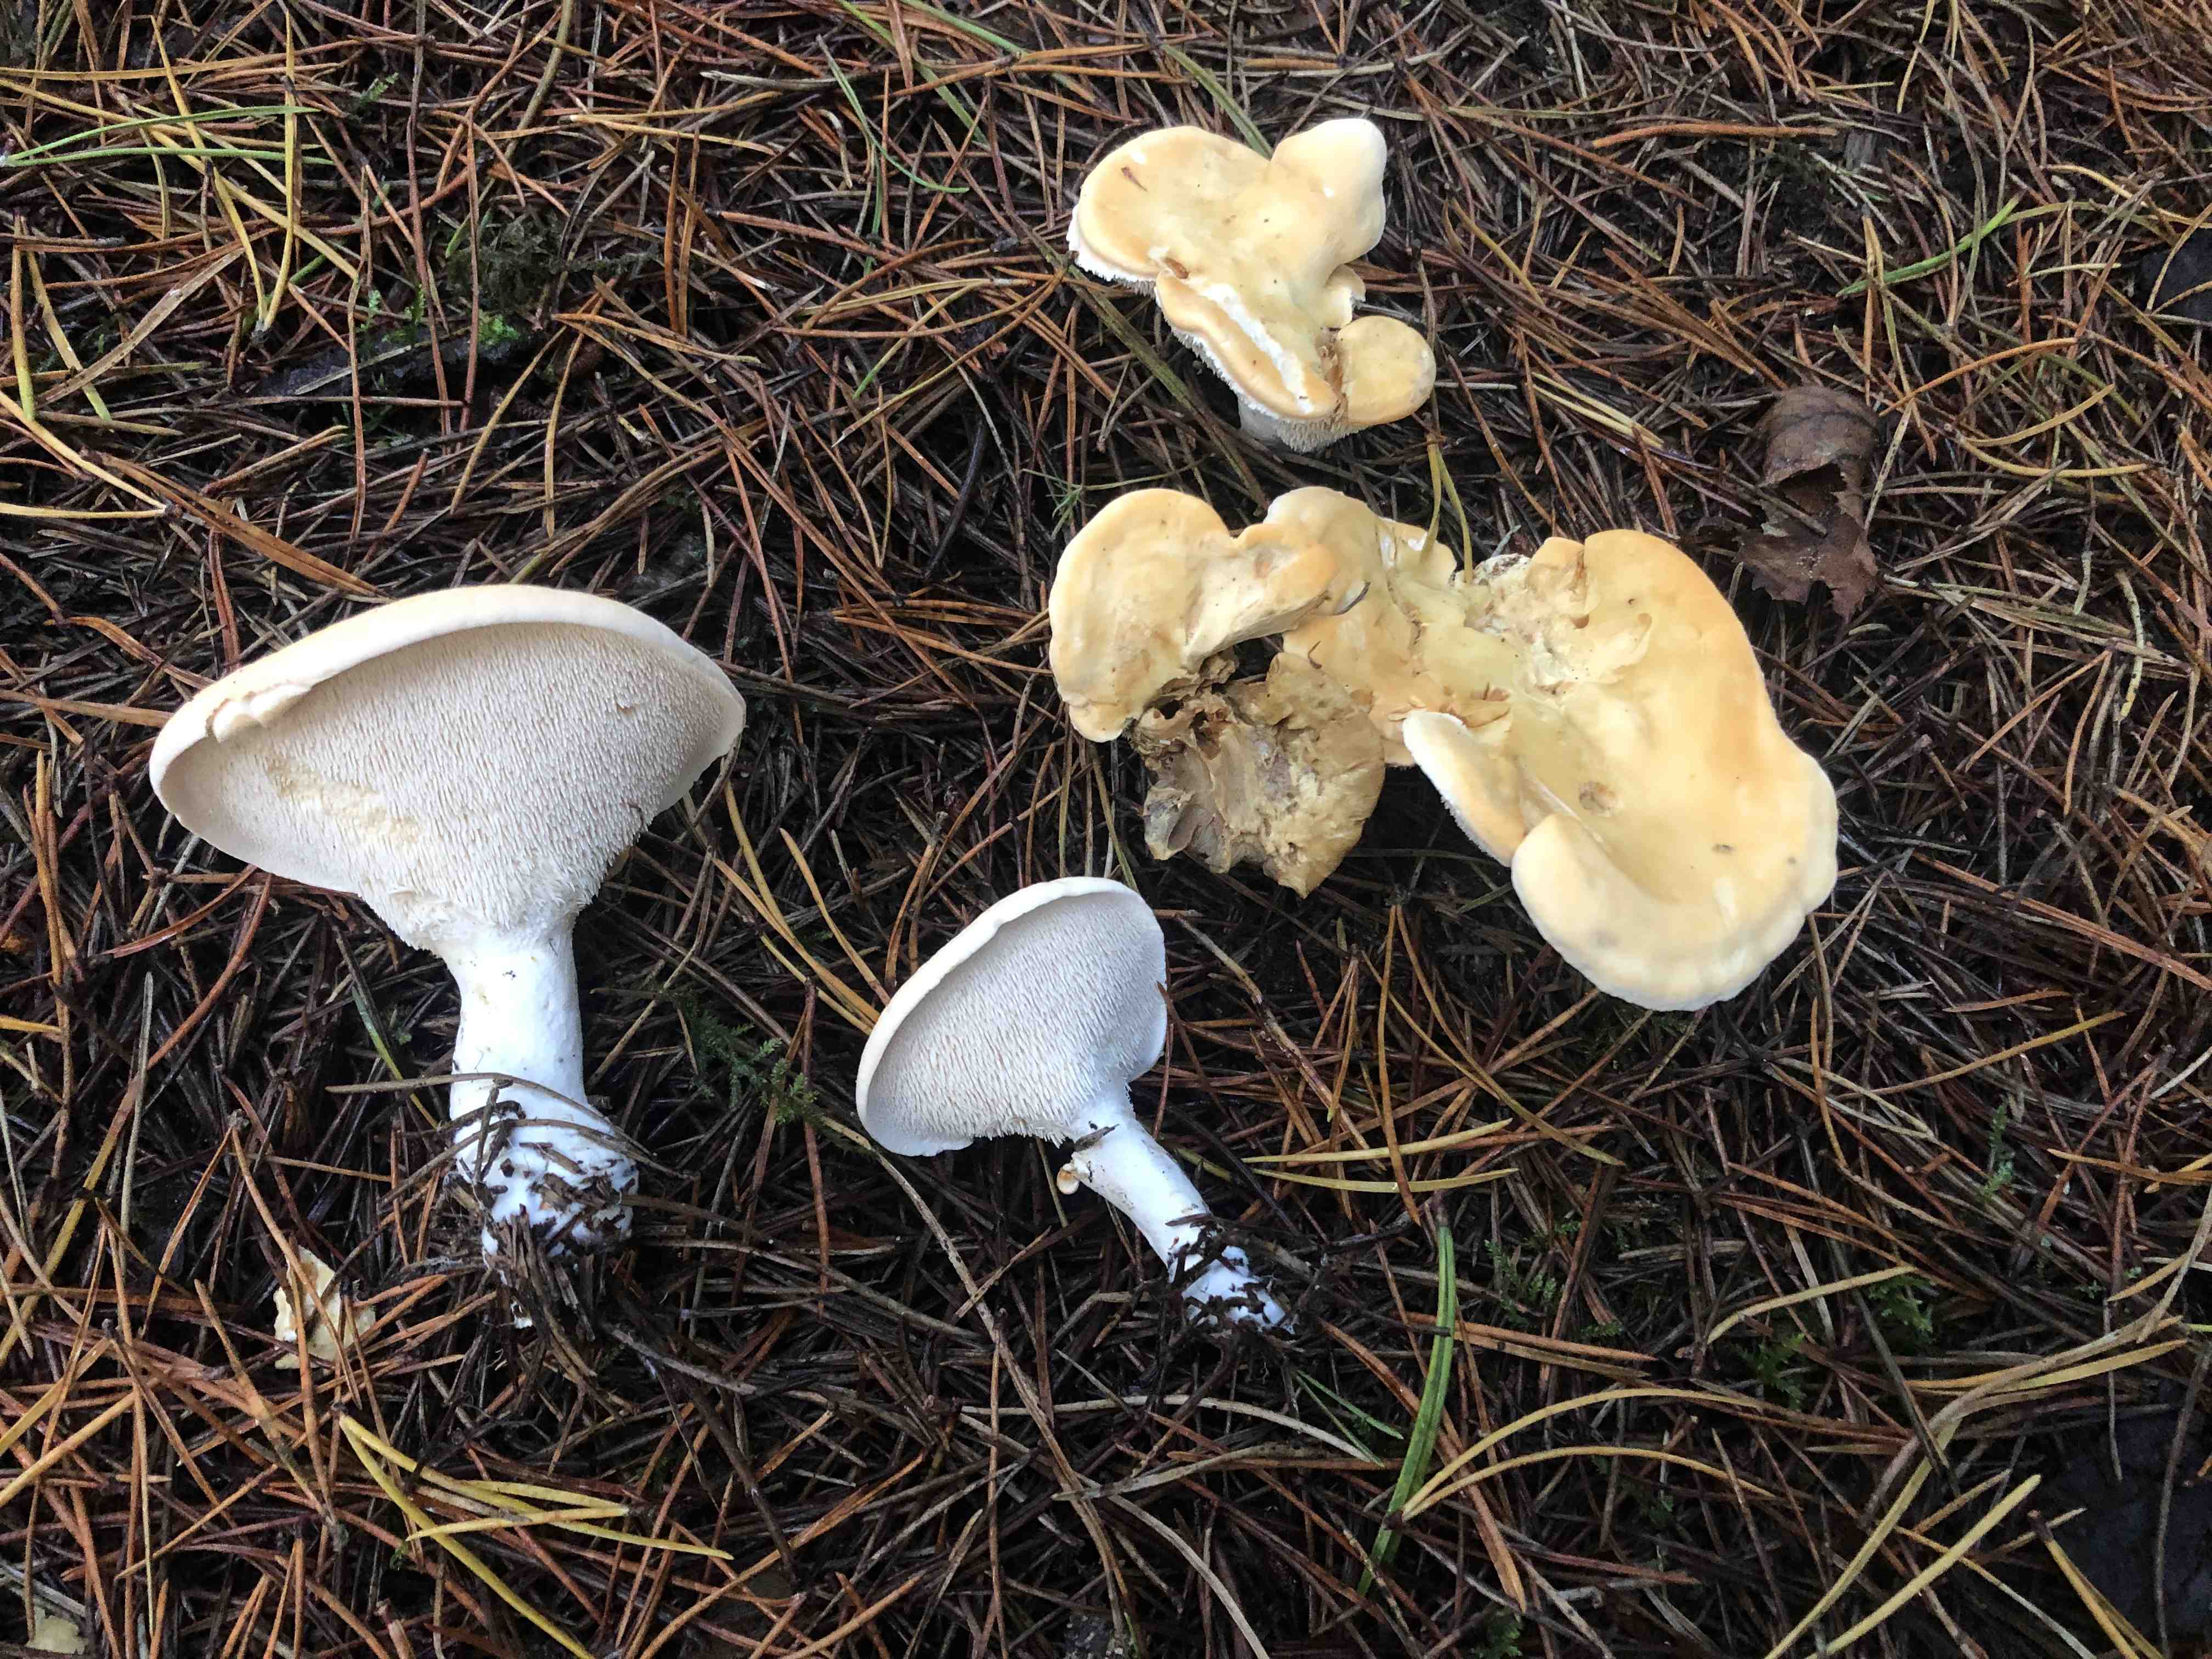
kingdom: Fungi
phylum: Basidiomycota
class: Agaricomycetes
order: Cantharellales
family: Hydnaceae
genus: Hydnum
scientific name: Hydnum repandum
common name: almindelig pigsvamp
